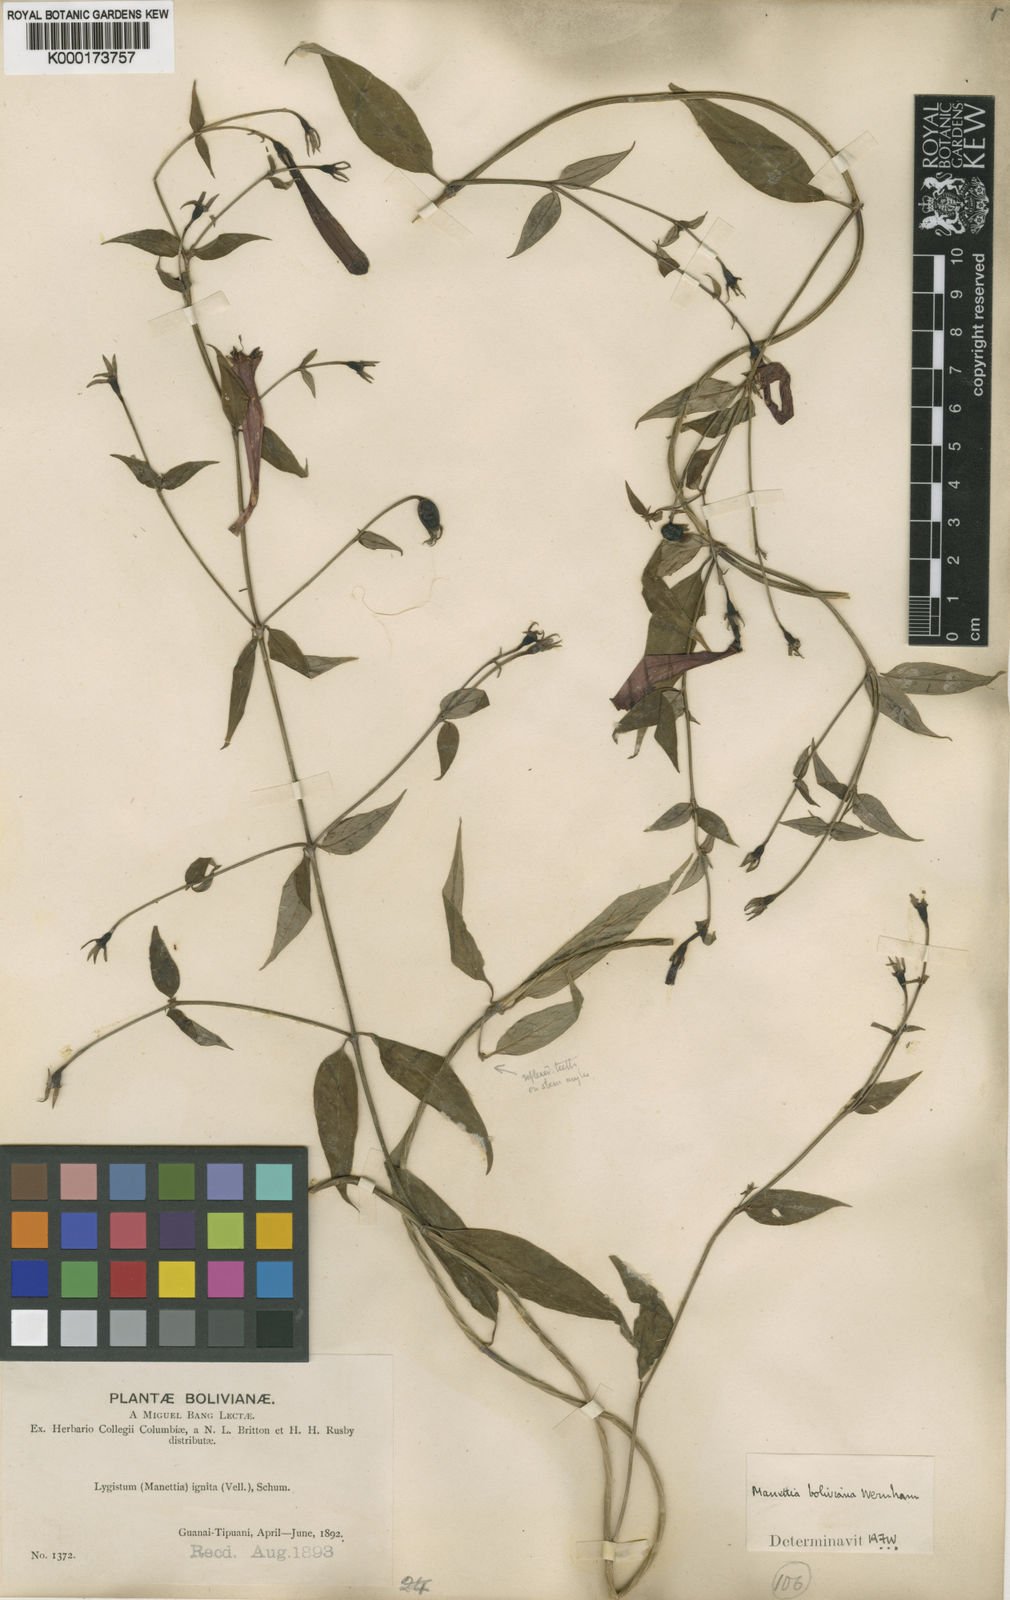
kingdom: Plantae
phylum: Tracheophyta
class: Magnoliopsida
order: Gentianales
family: Rubiaceae
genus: Manettia
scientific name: Manettia cordifolia
